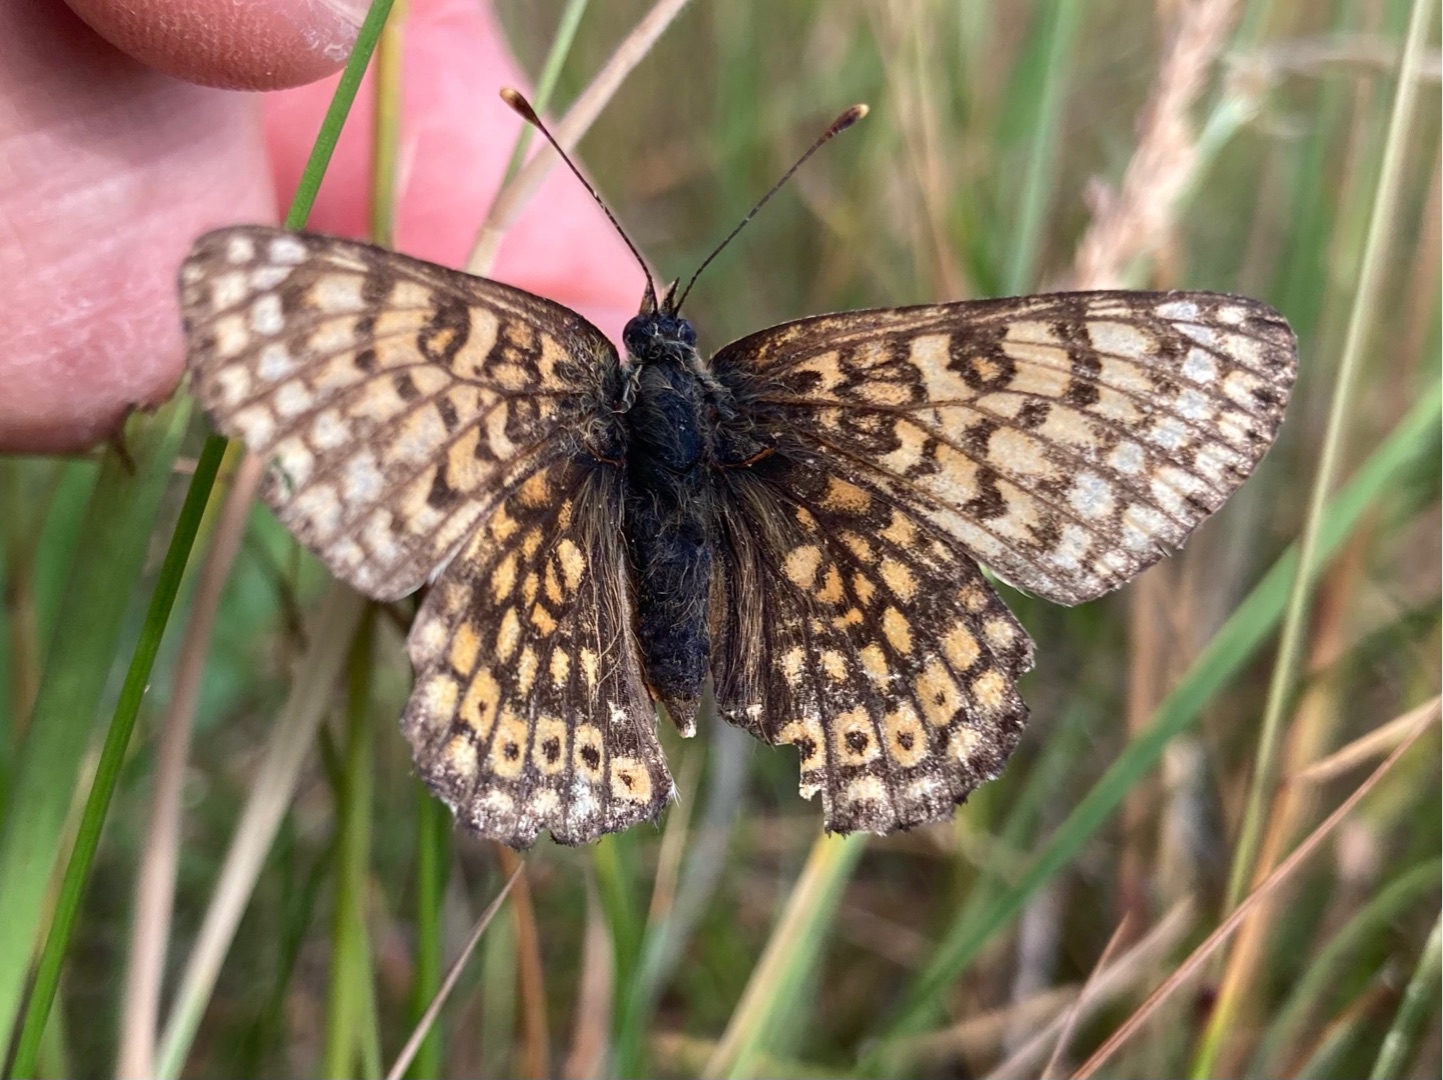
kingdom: Animalia
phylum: Arthropoda
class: Insecta
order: Lepidoptera
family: Nymphalidae
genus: Melitaea
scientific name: Melitaea cinxia
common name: Okkergul pletvinge
